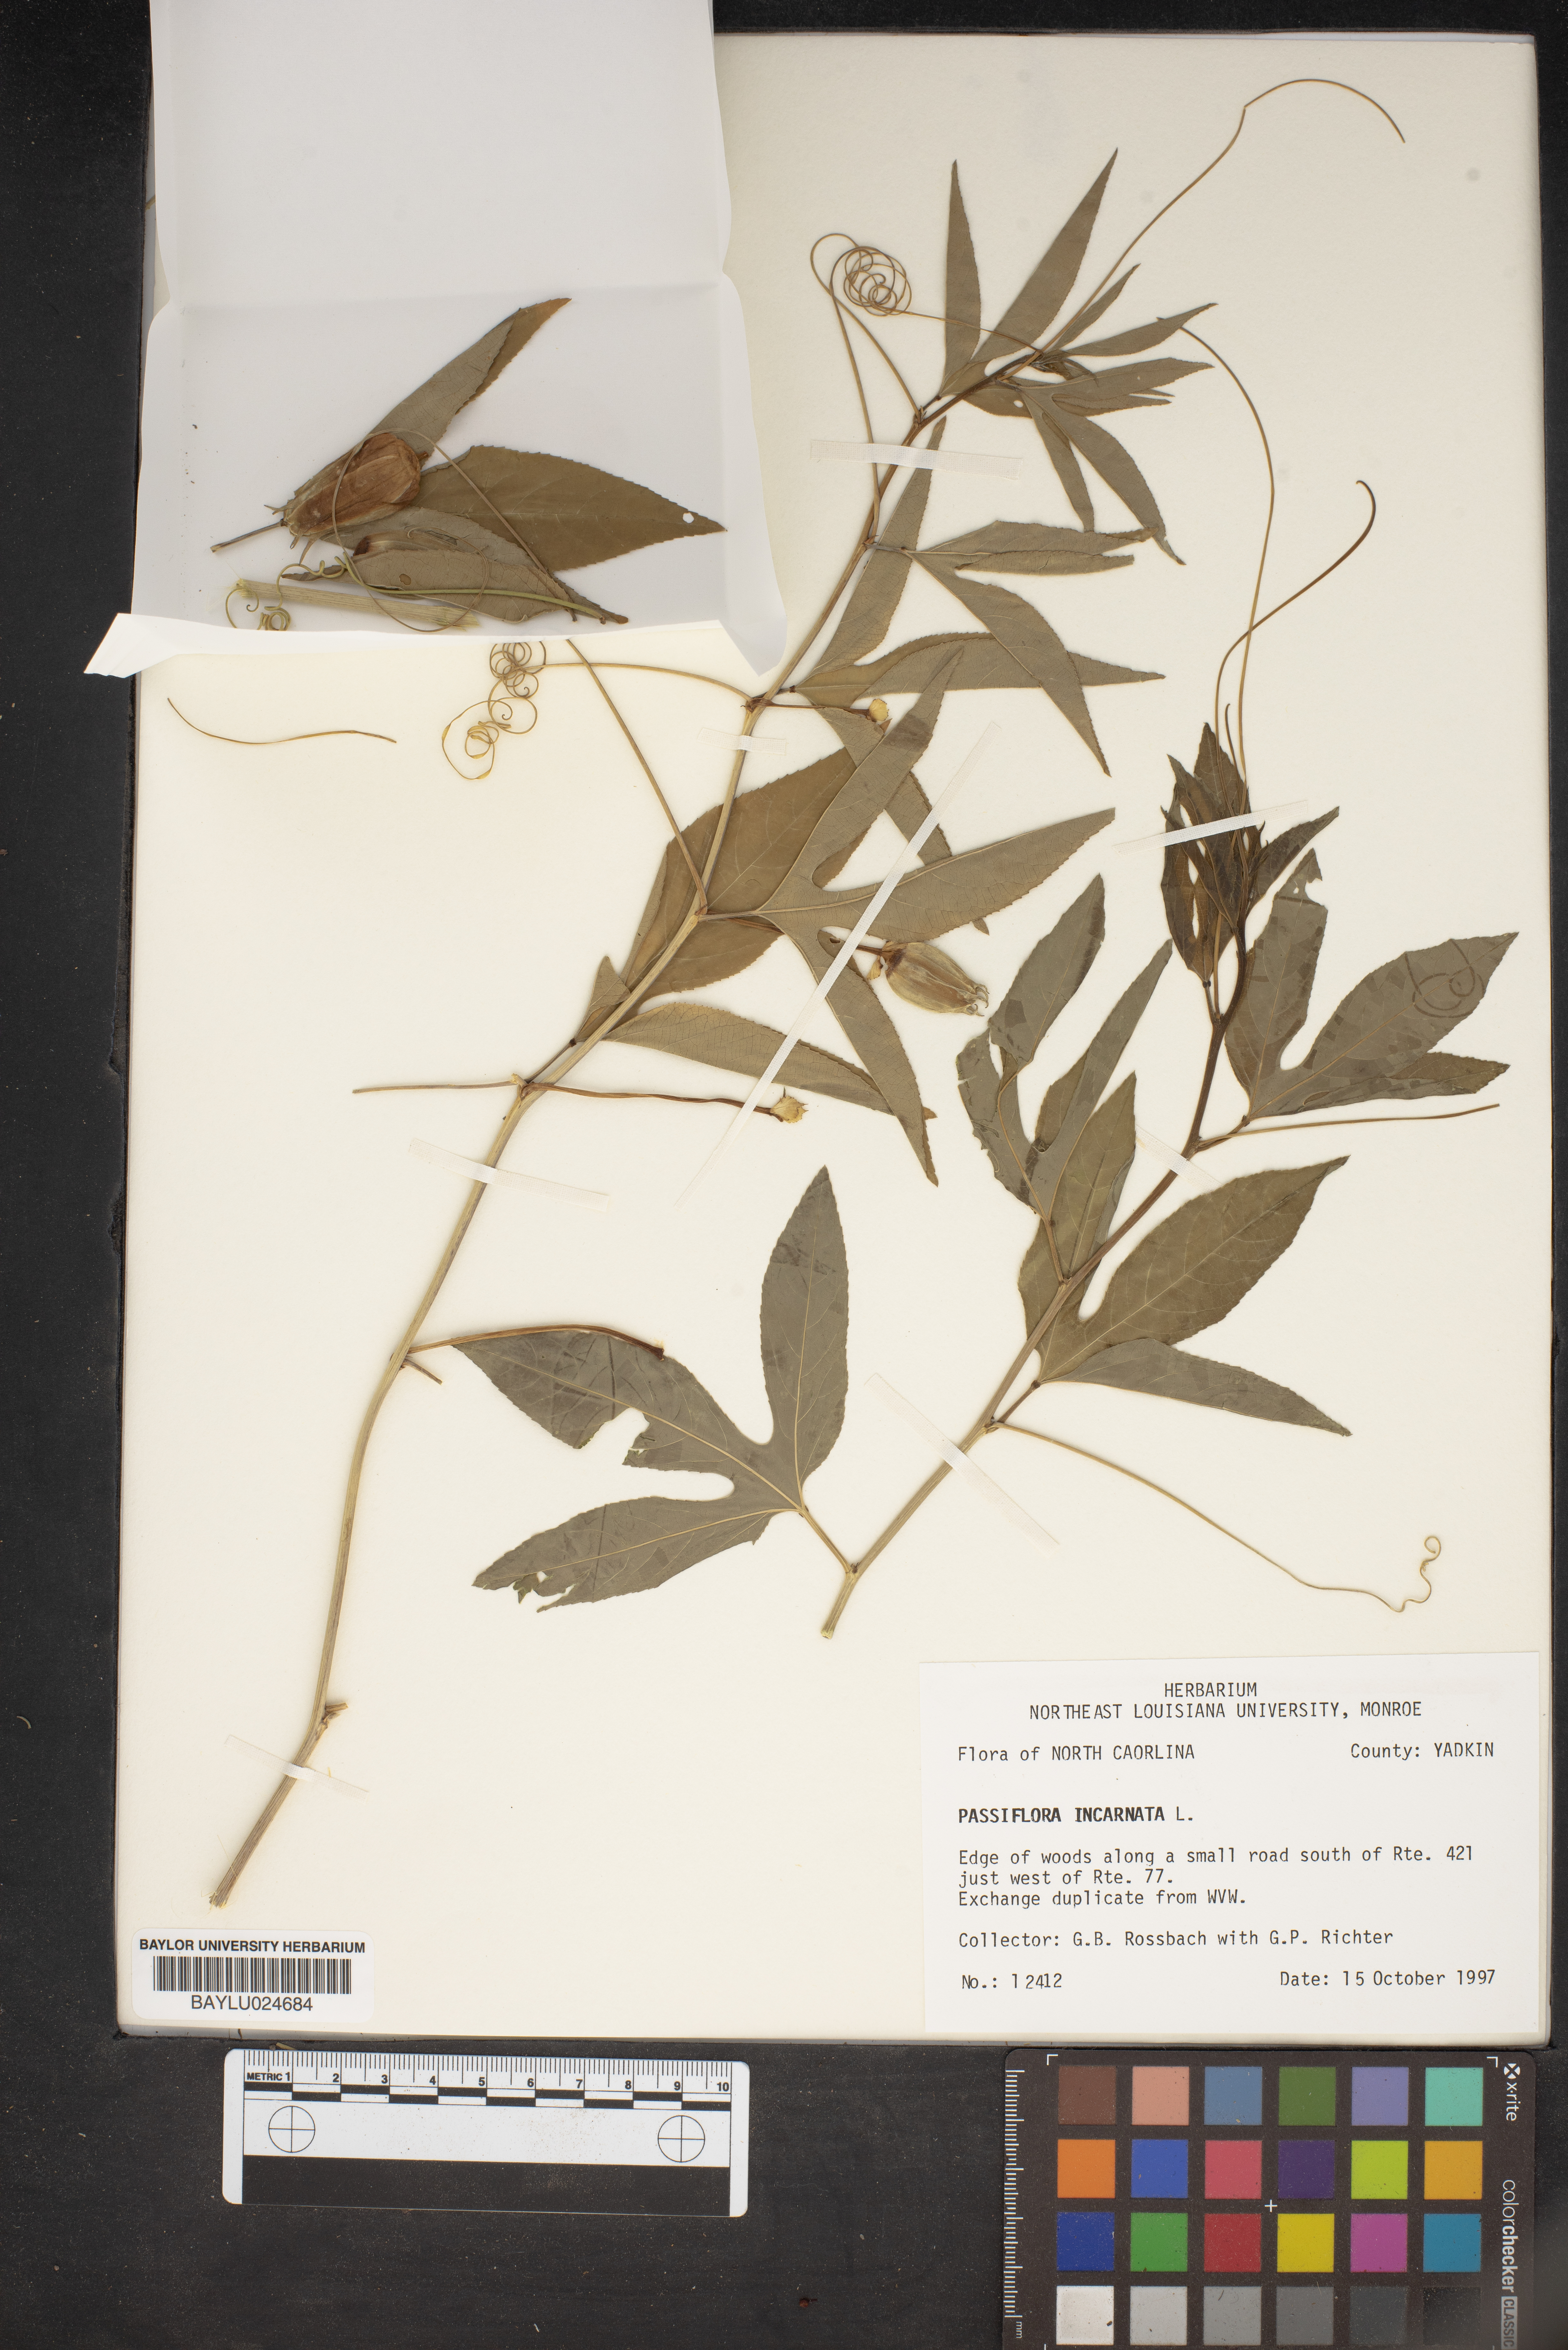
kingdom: Plantae
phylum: Tracheophyta
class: Magnoliopsida
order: Malpighiales
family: Passifloraceae
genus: Passiflora
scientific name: Passiflora incarnata
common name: Apricot-vine
